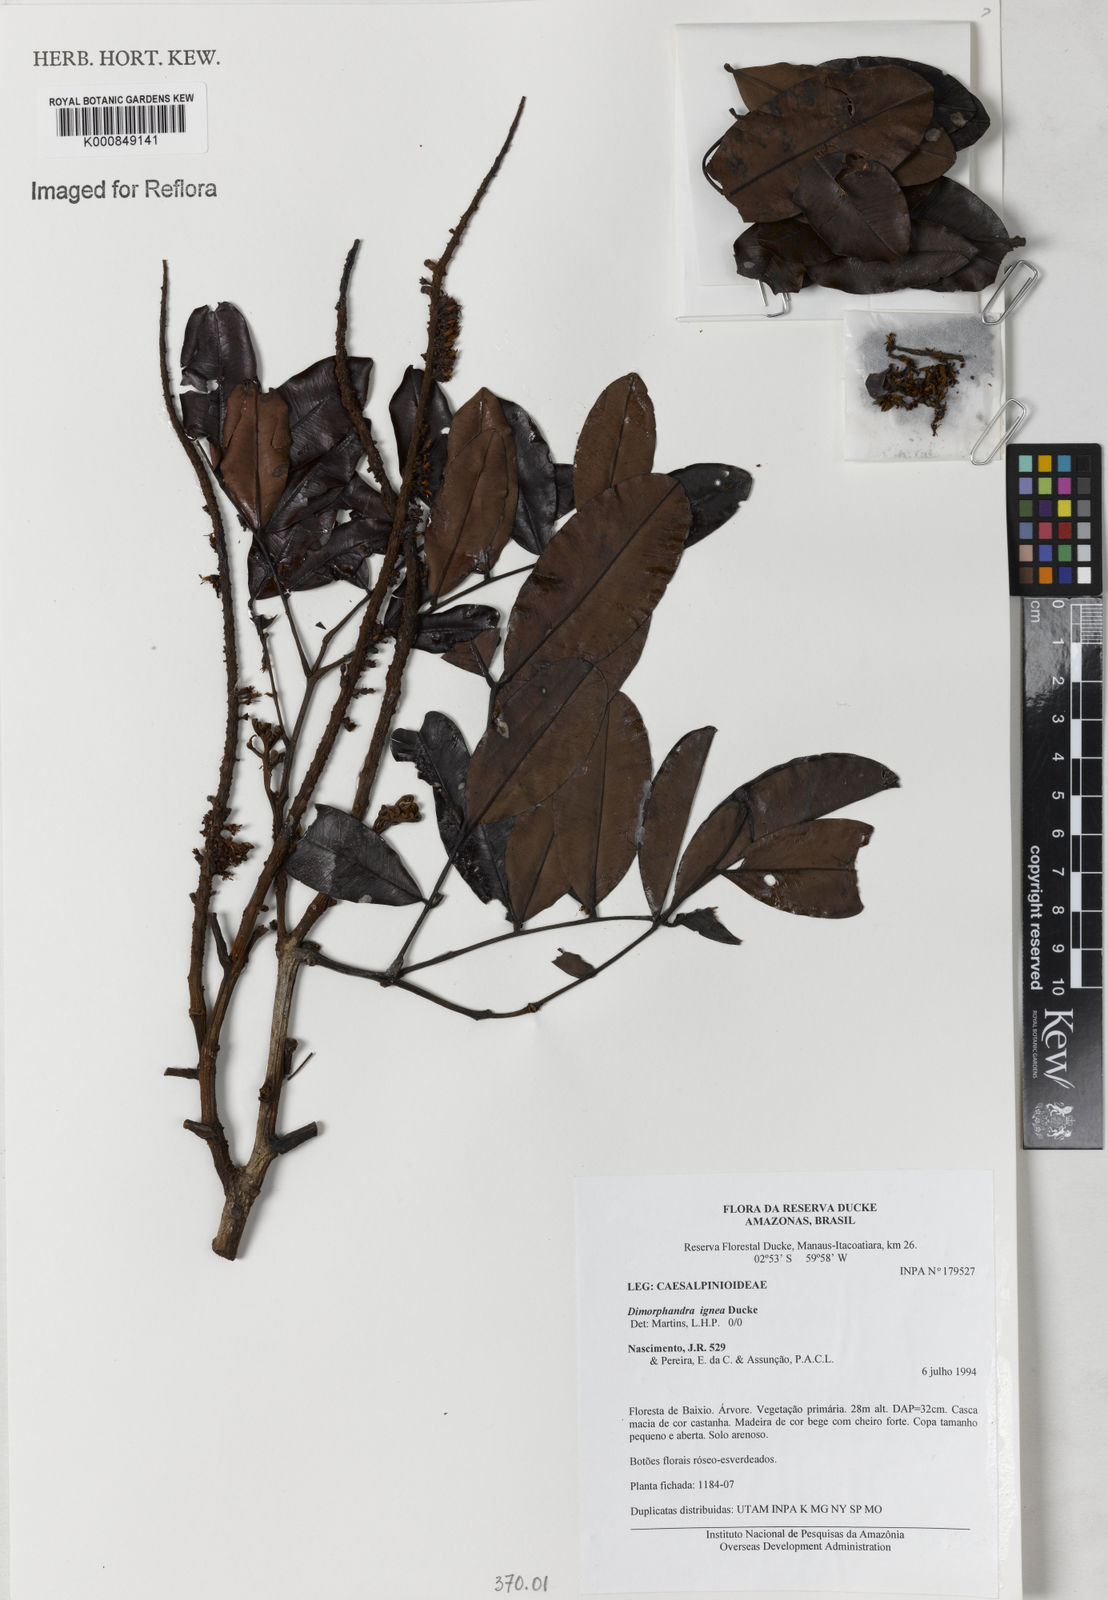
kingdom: Plantae
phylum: Tracheophyta
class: Magnoliopsida
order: Fabales
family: Fabaceae
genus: Dimorphandra
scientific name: Dimorphandra ignea
